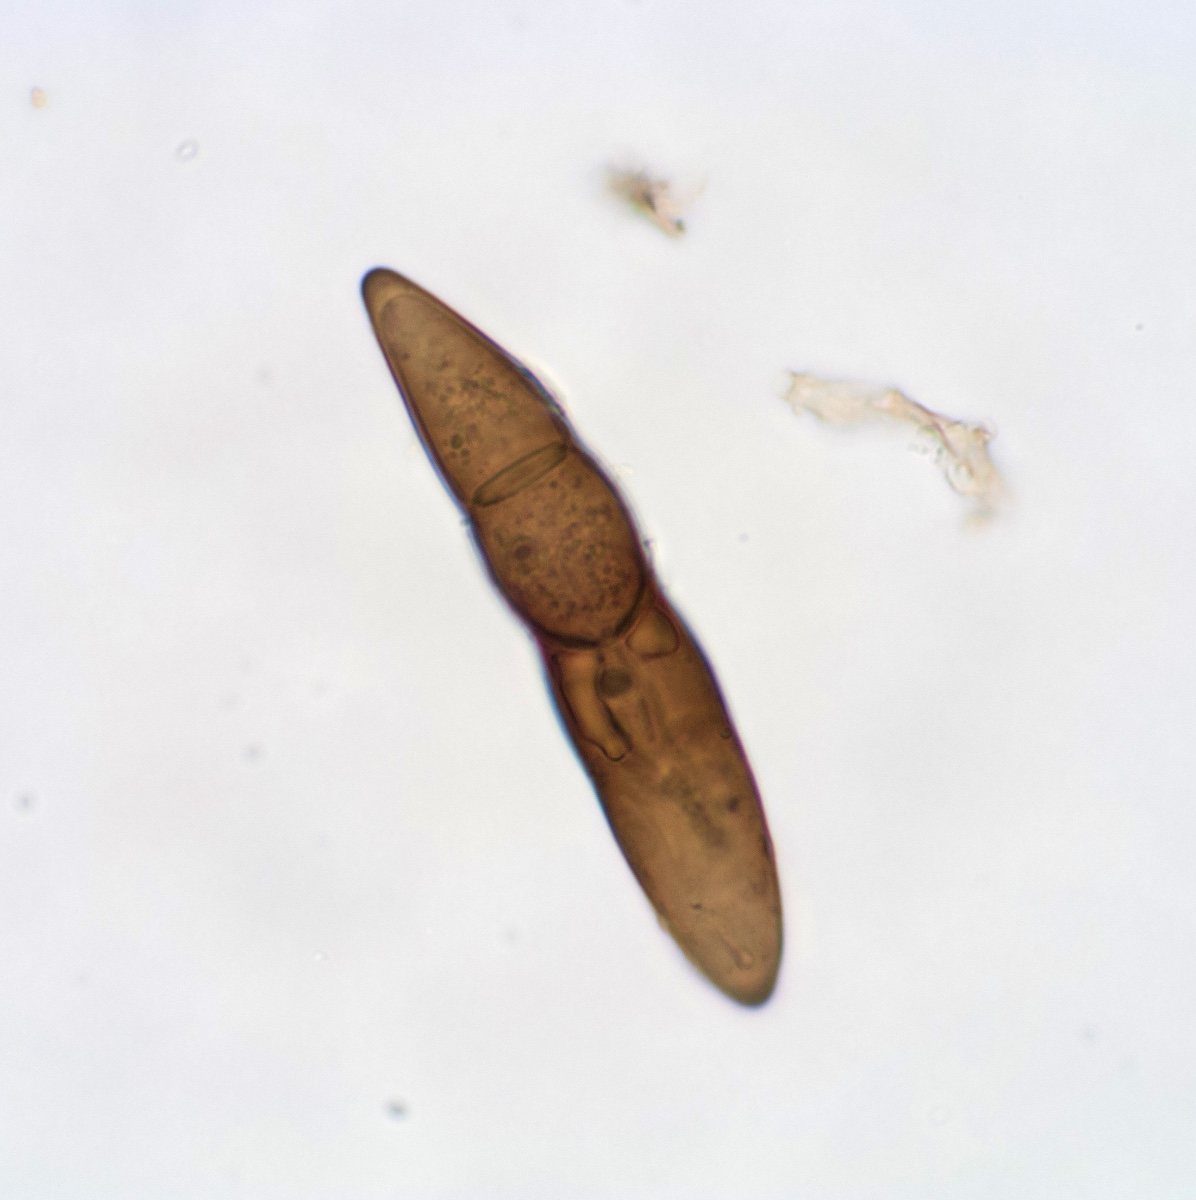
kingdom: Fungi
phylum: Ascomycota
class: Dothideomycetes
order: Pleosporales
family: Massariaceae
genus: Massaria
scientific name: Massaria conspurcata
